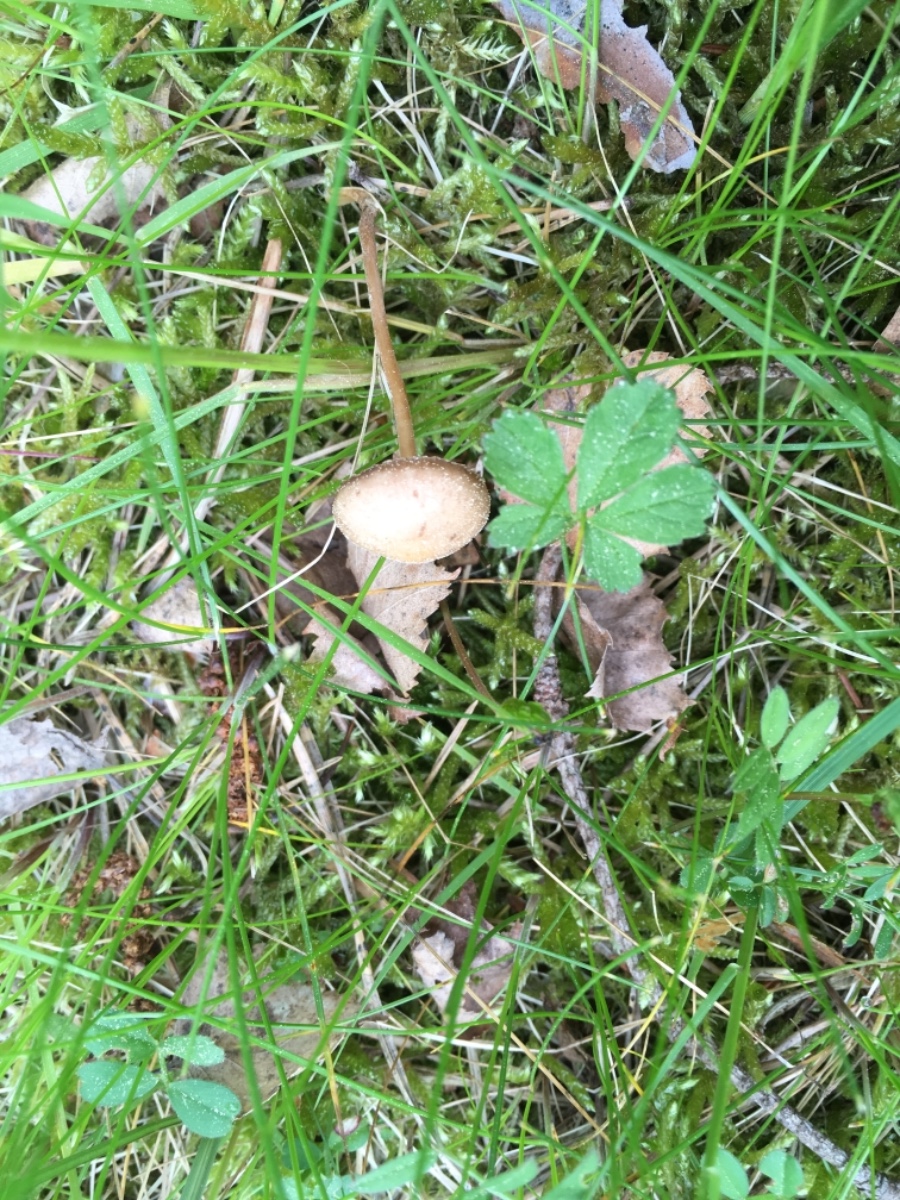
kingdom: Fungi
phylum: Basidiomycota
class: Agaricomycetes
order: Agaricales
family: Physalacriaceae
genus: Strobilurus
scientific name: Strobilurus tenacellus
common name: sommer-koglehat
